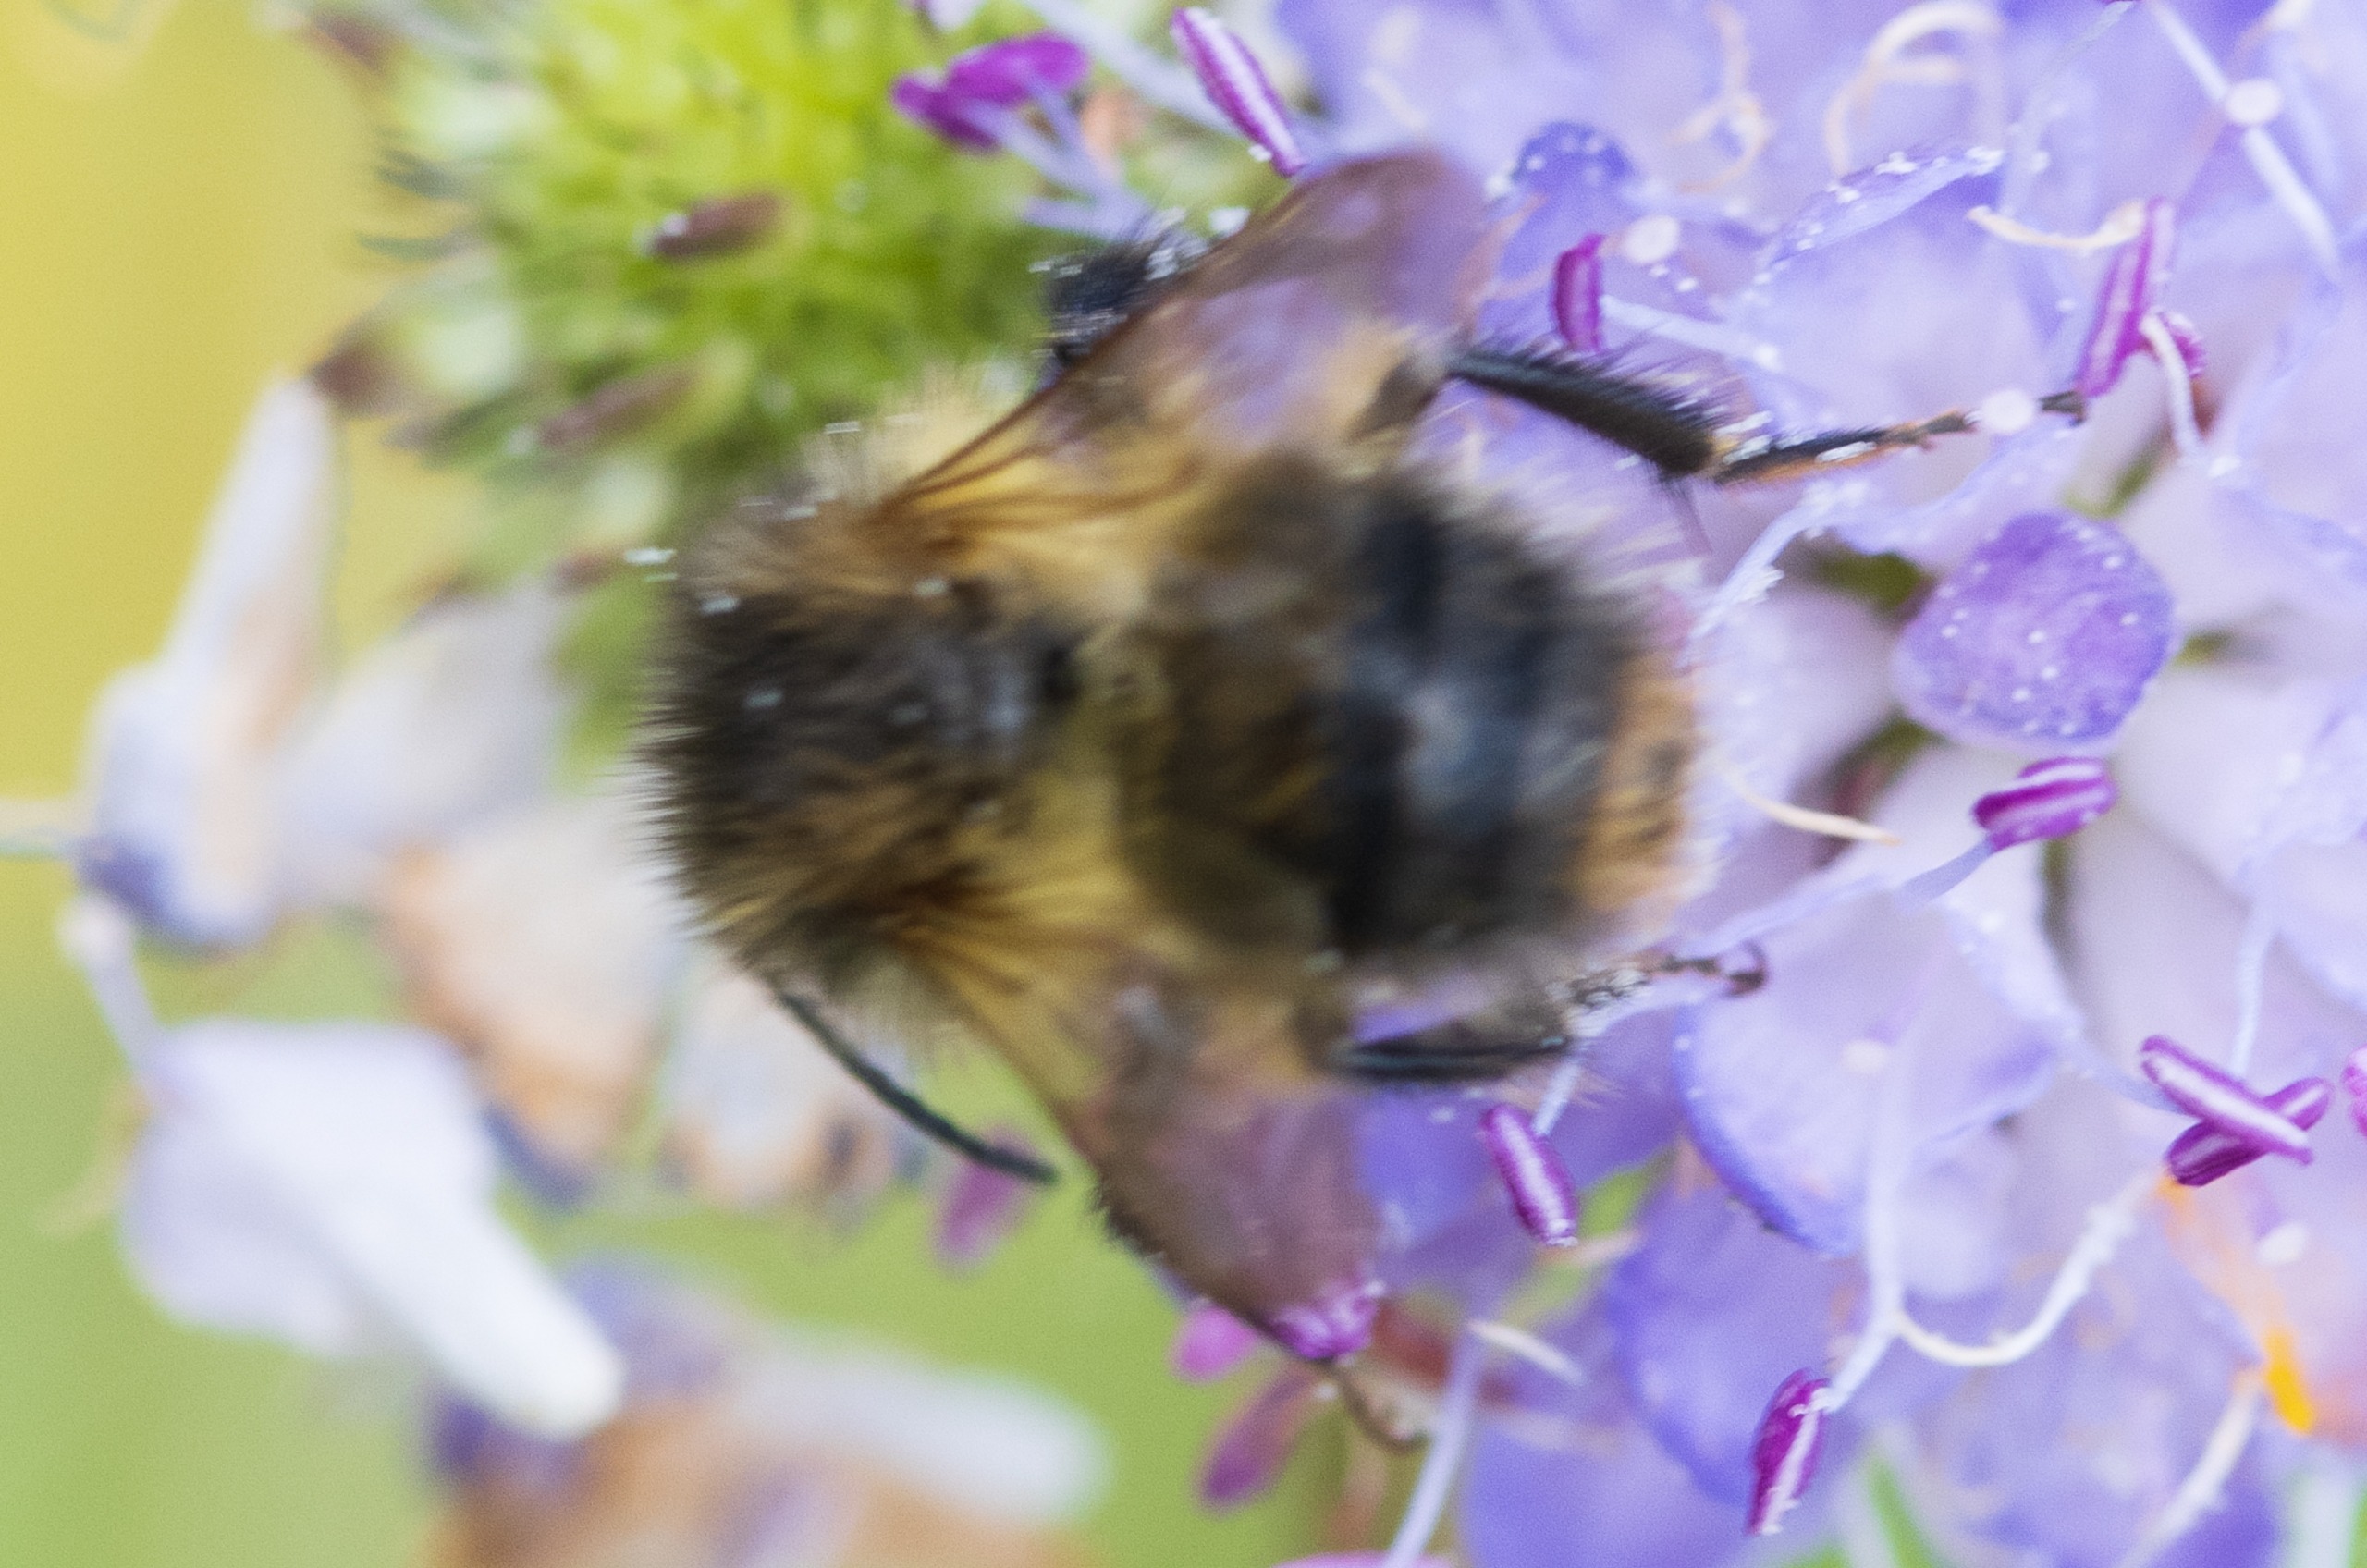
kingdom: Animalia
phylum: Arthropoda
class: Insecta
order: Hymenoptera
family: Apidae
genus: Bombus
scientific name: Bombus
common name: Humlebier
